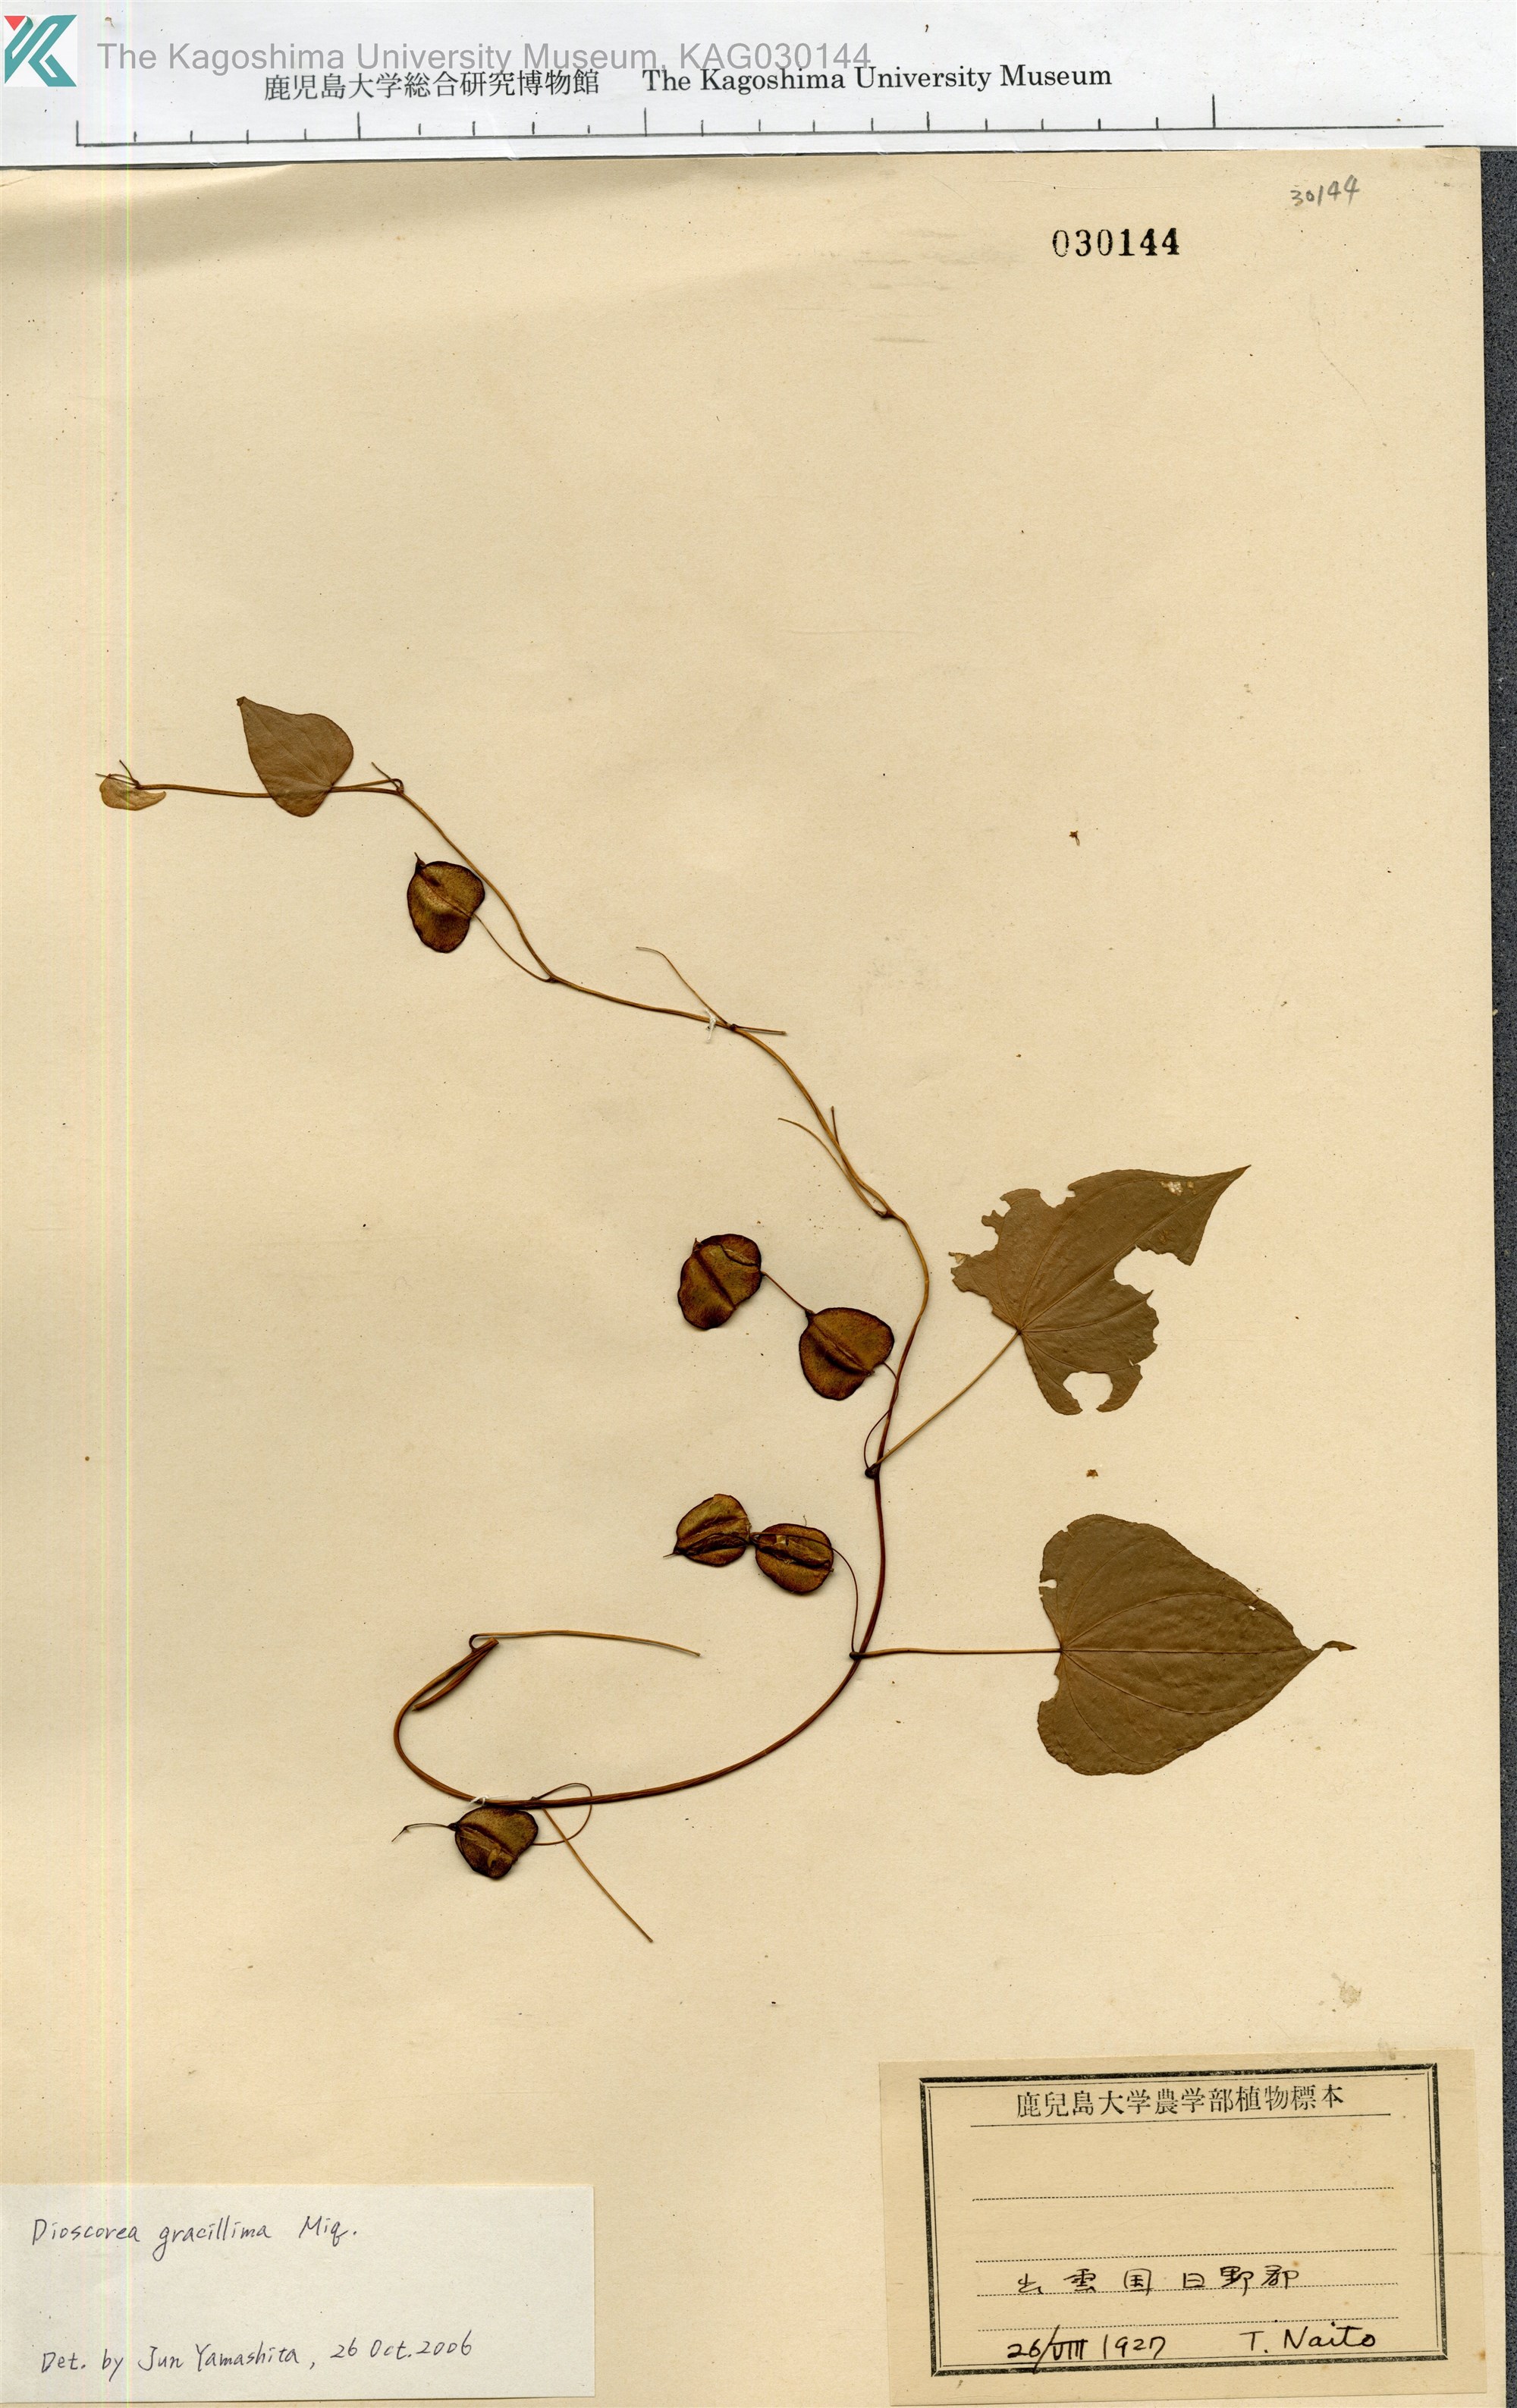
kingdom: Plantae
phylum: Tracheophyta
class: Liliopsida
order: Dioscoreales
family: Dioscoreaceae
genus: Dioscorea
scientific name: Dioscorea
